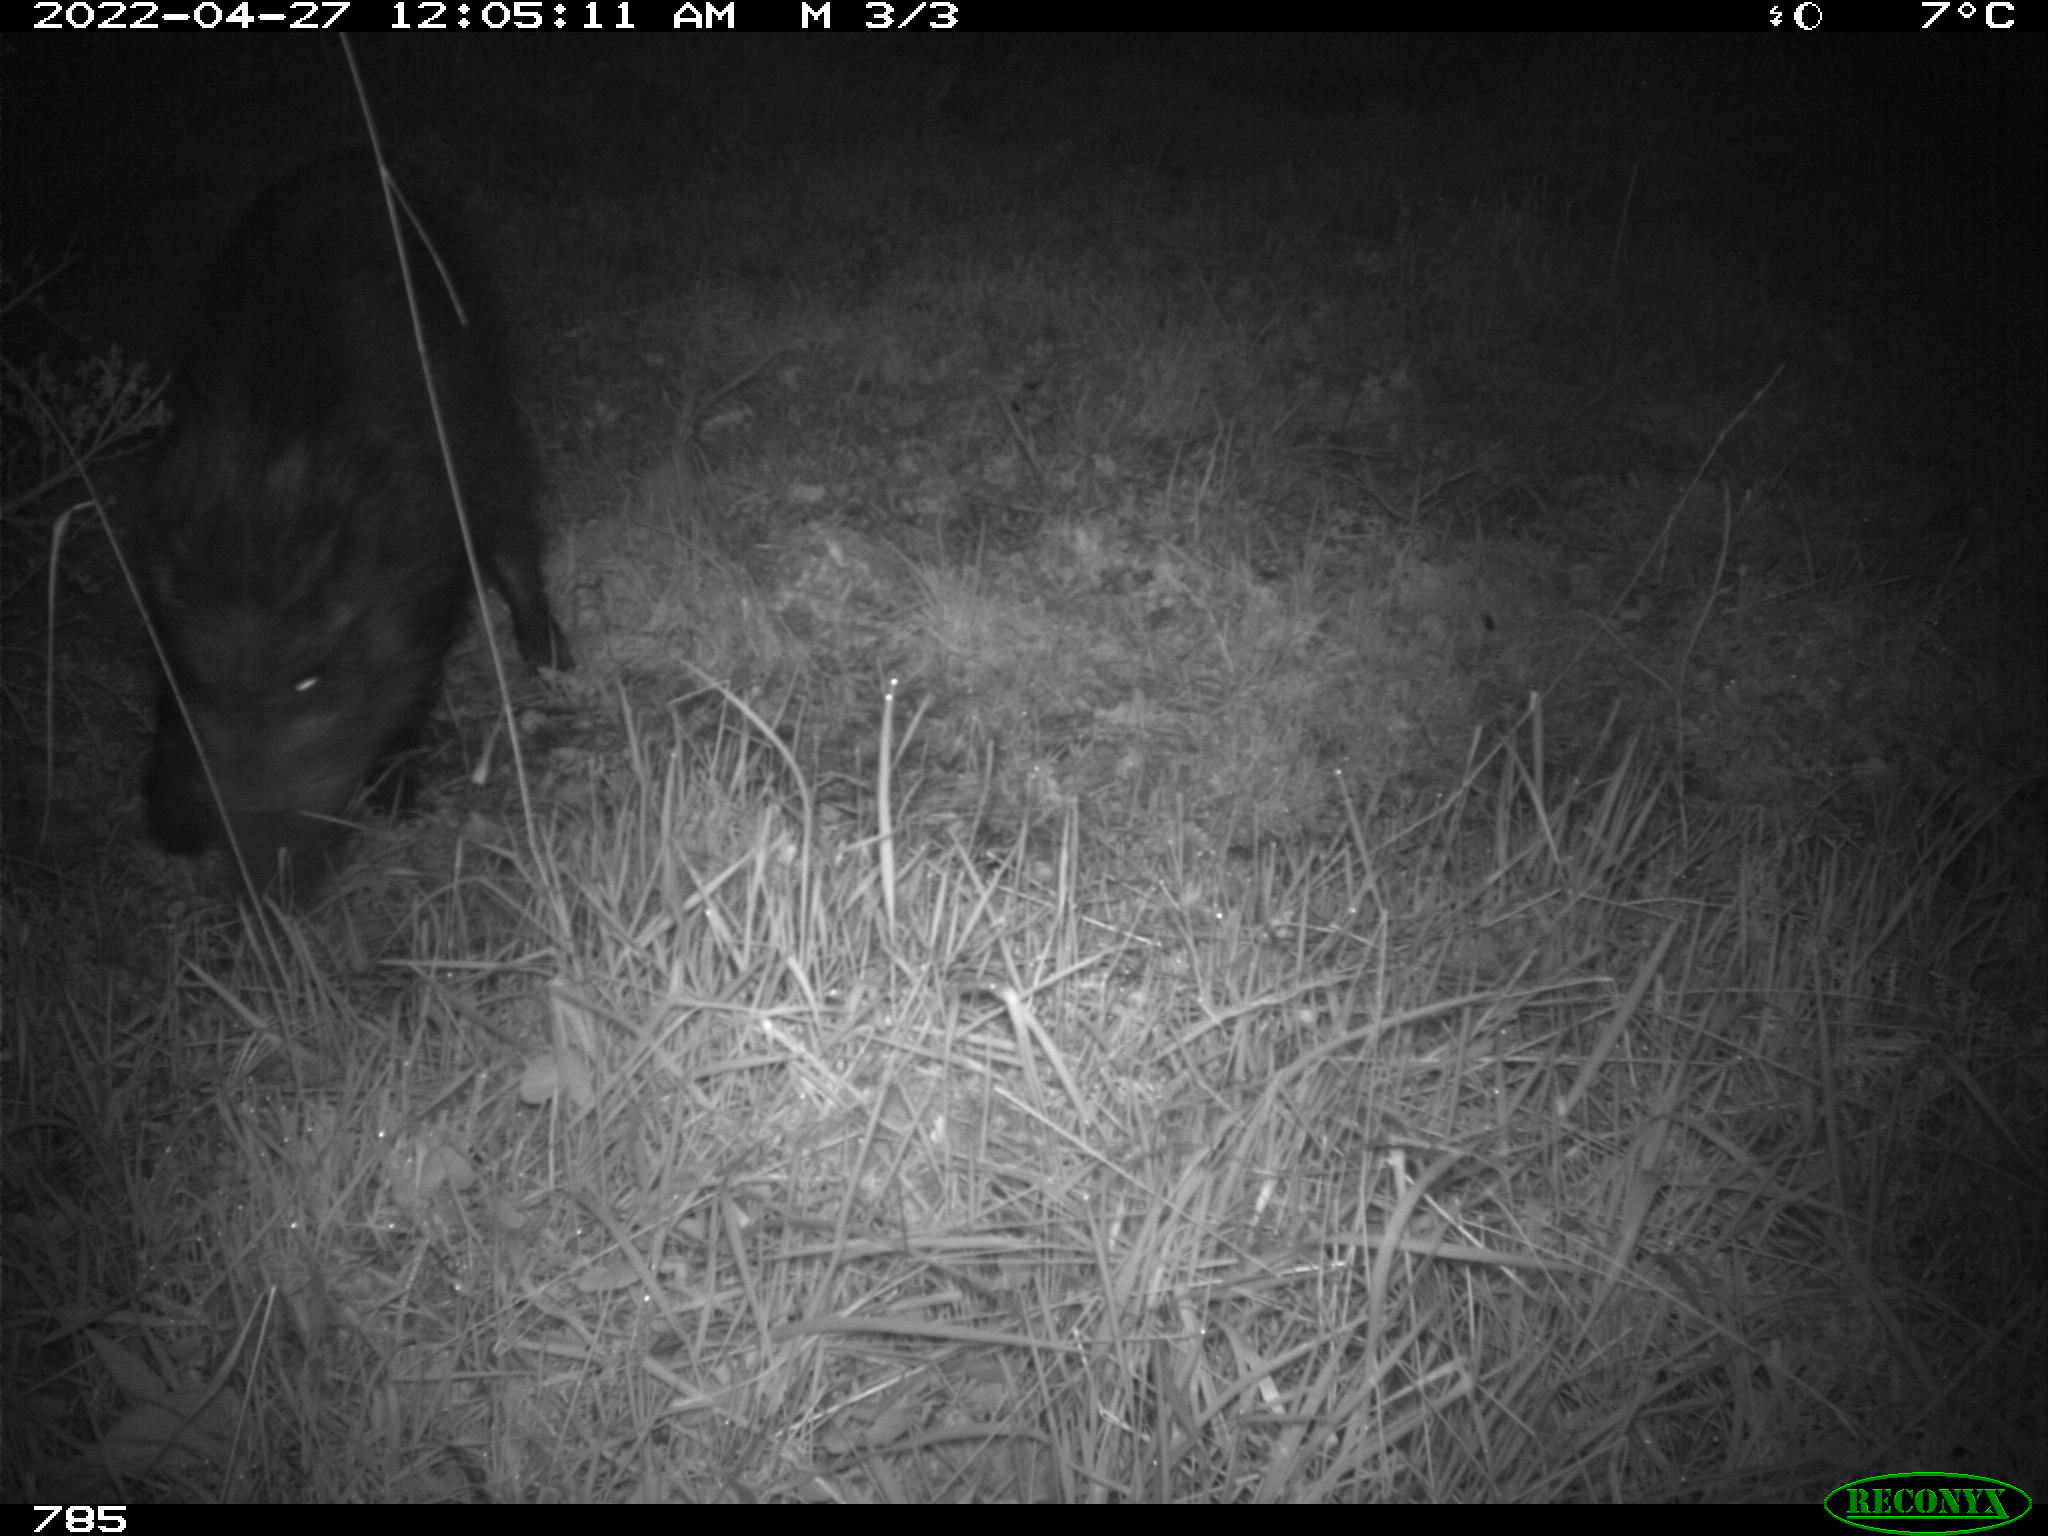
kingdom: Animalia
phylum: Chordata
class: Mammalia
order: Artiodactyla
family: Suidae
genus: Sus
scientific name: Sus scrofa
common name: Wild boar
